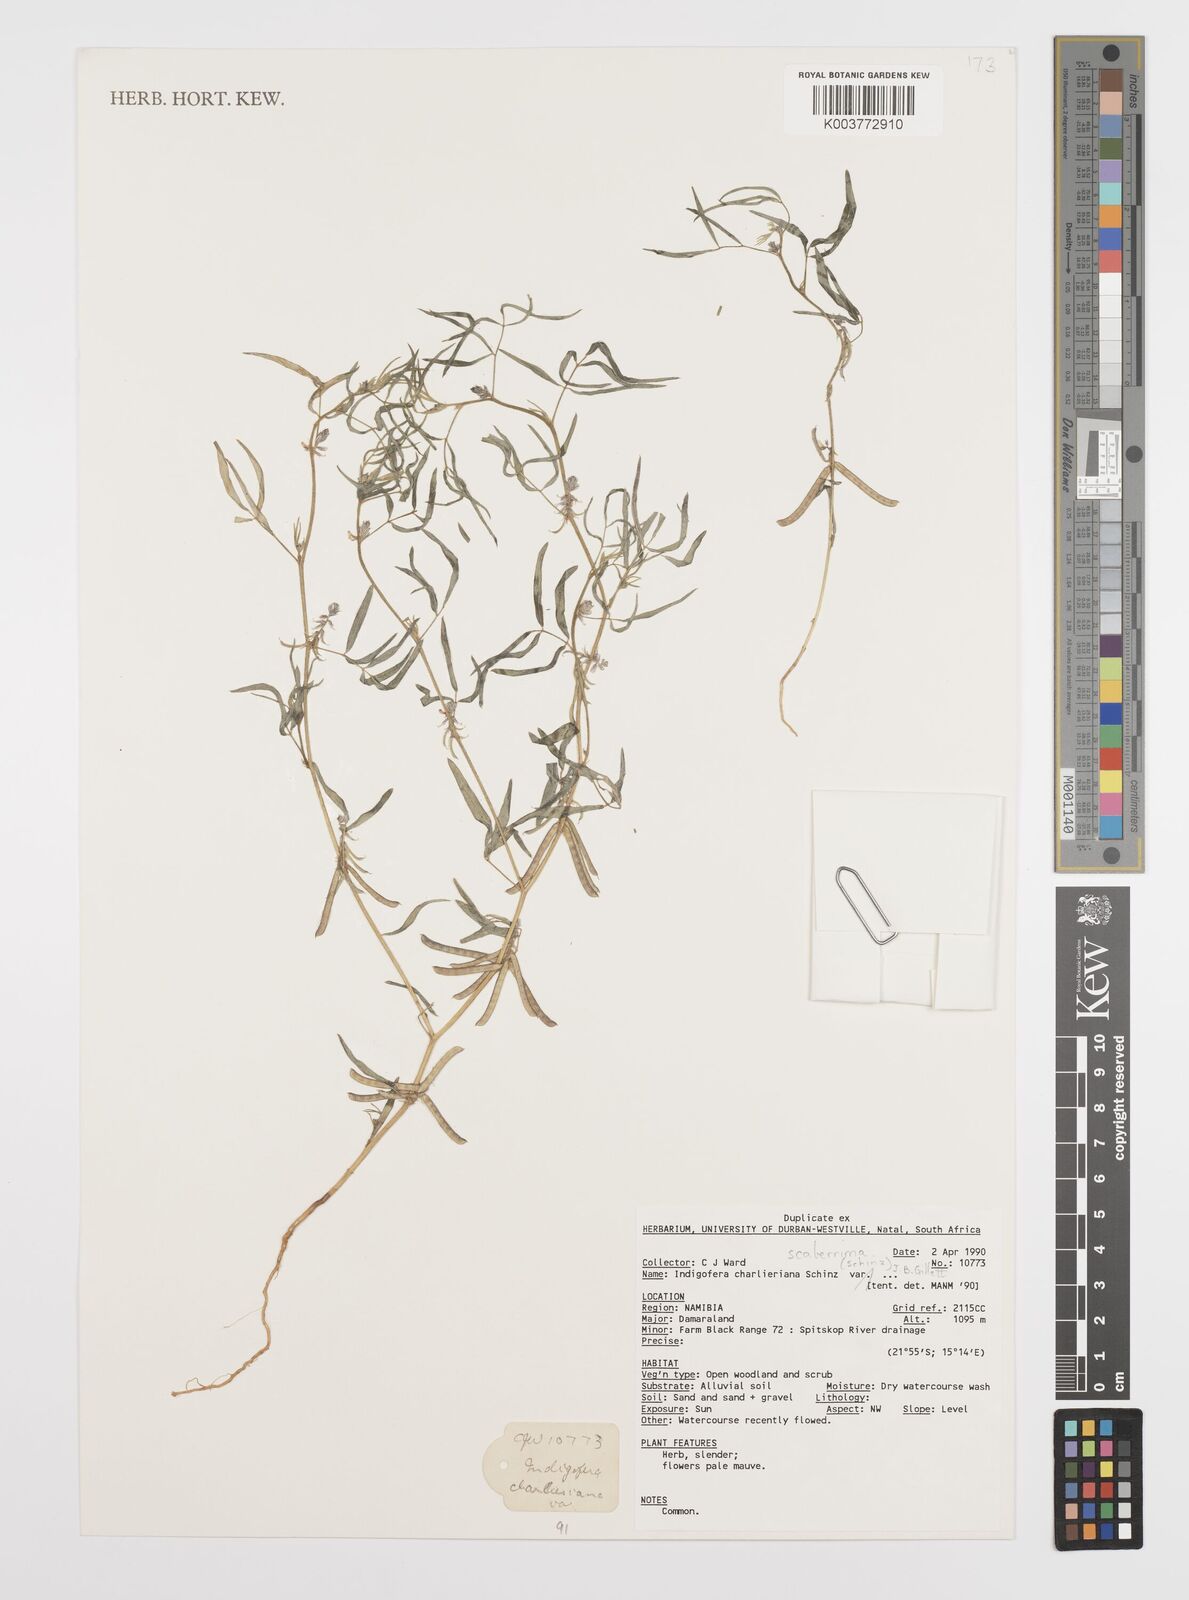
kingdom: Plantae
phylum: Tracheophyta
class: Magnoliopsida
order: Fabales
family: Fabaceae
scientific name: Fabaceae
